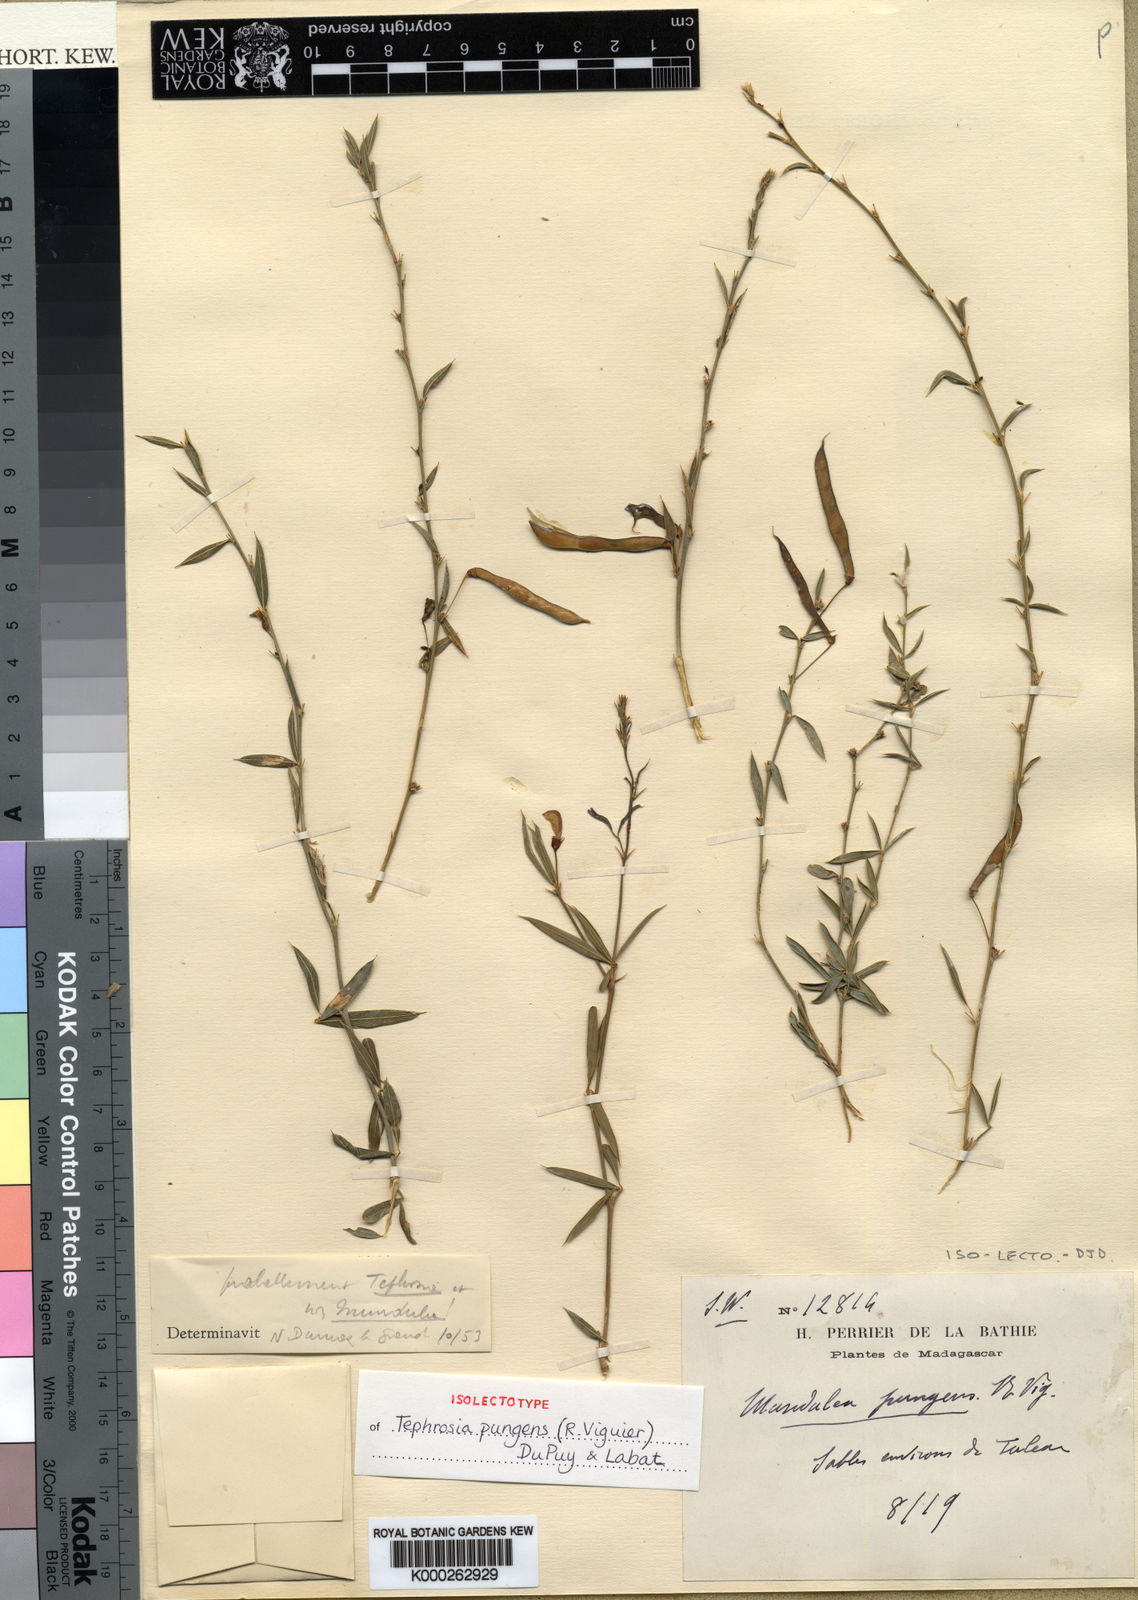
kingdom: Plantae
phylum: Tracheophyta
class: Magnoliopsida
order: Fabales
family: Fabaceae
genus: Tephrosia
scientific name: Tephrosia pungens
